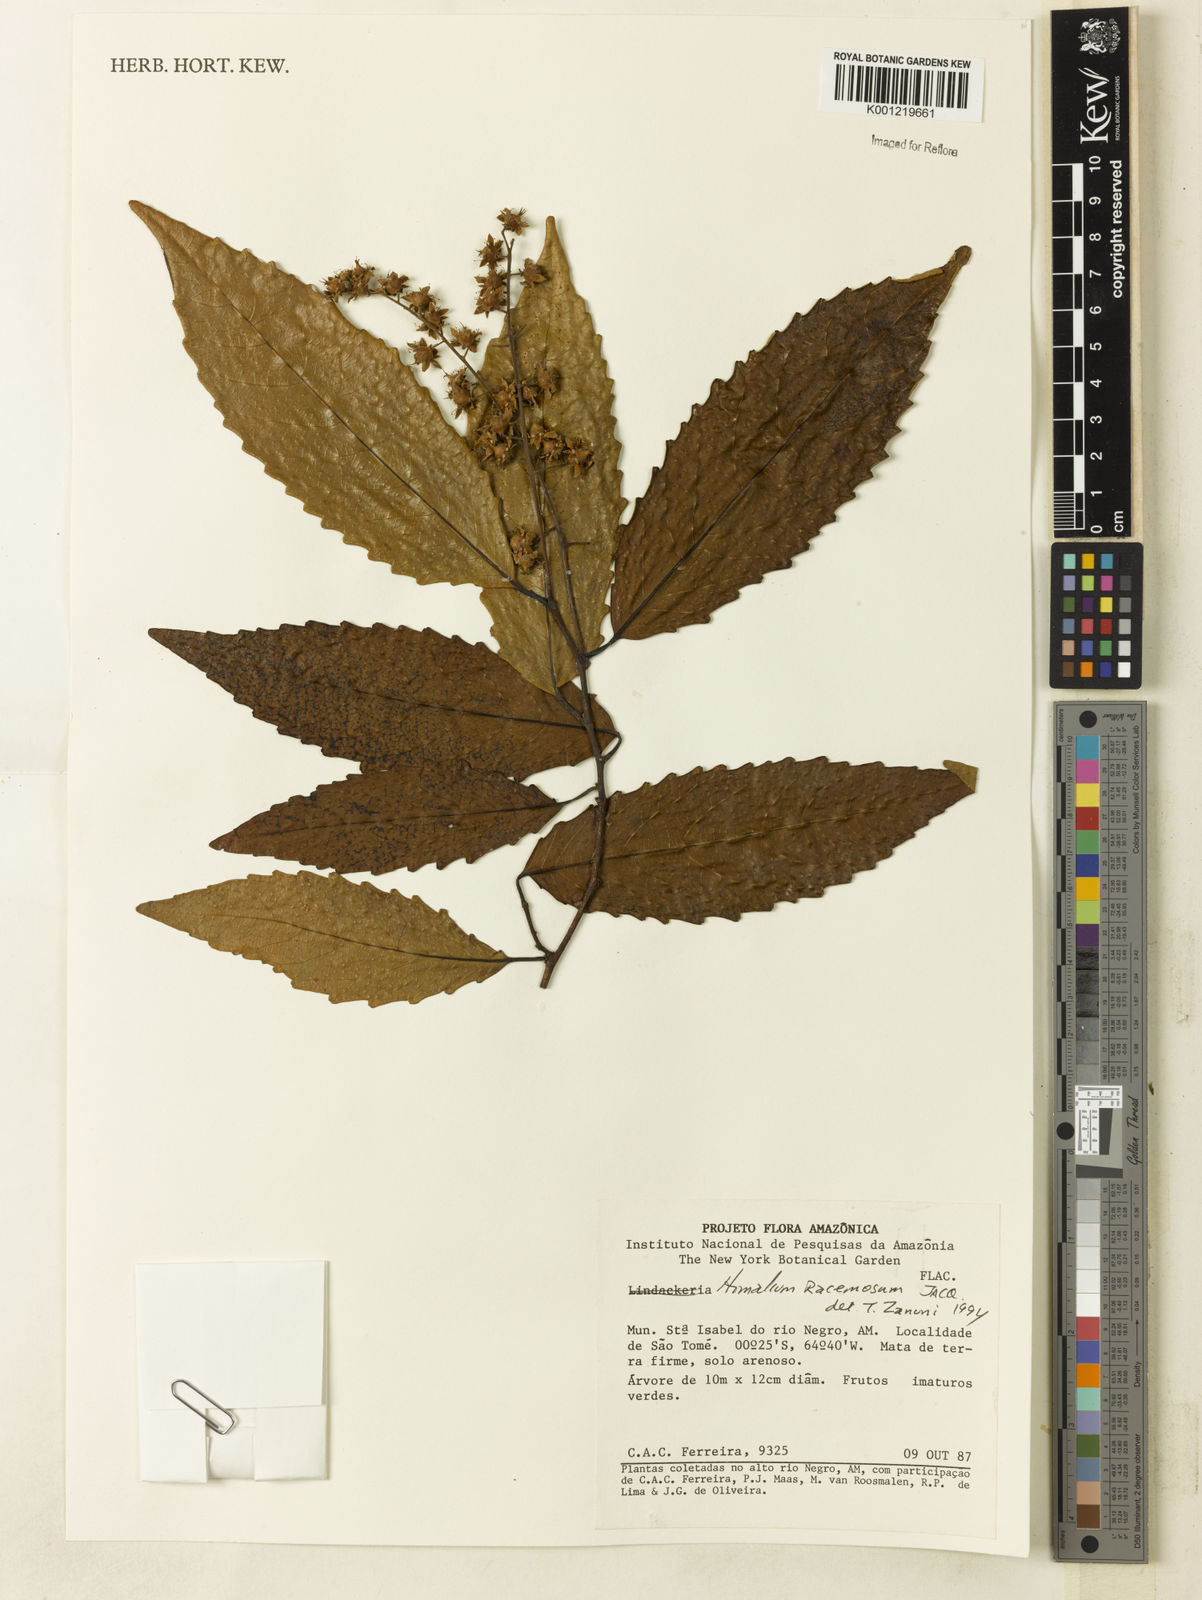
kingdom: Plantae
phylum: Tracheophyta
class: Magnoliopsida
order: Malpighiales
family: Salicaceae
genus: Homalium
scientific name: Homalium racemosum
